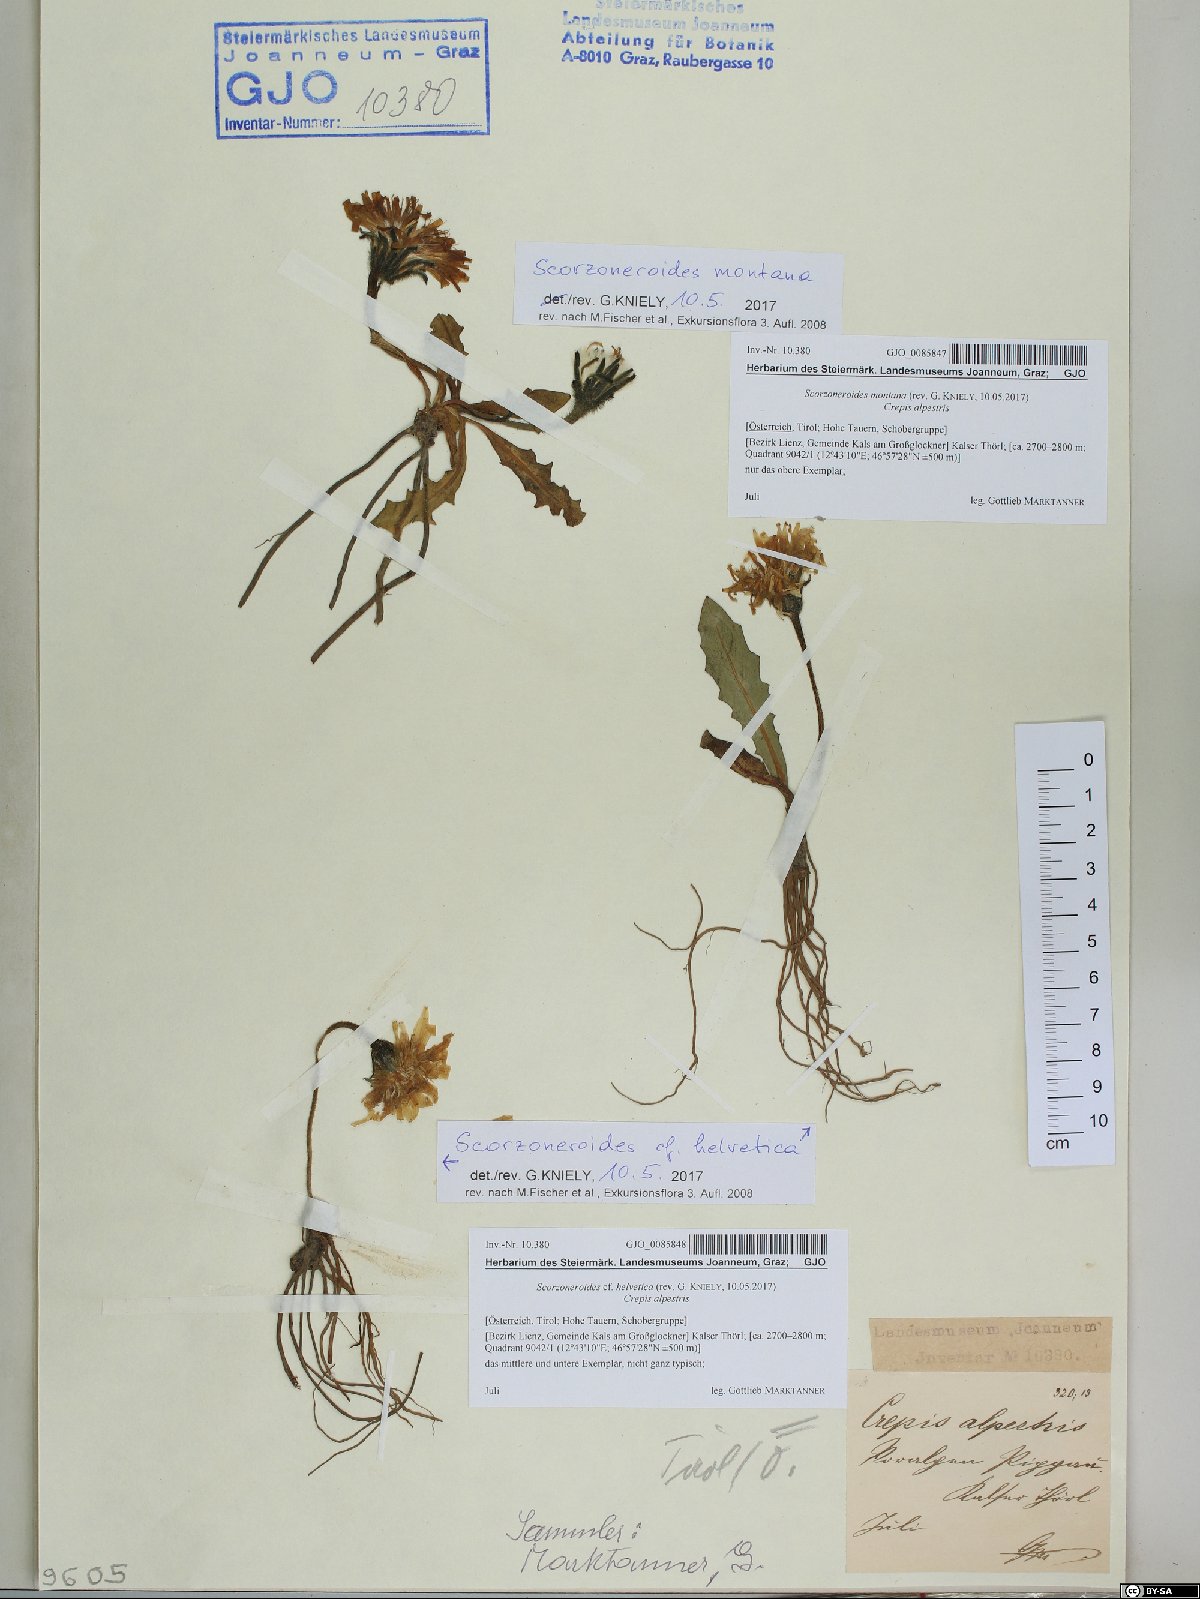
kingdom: Plantae
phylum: Tracheophyta
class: Magnoliopsida
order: Asterales
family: Asteraceae
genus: Scorzoneroides
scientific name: Scorzoneroides helvetica
